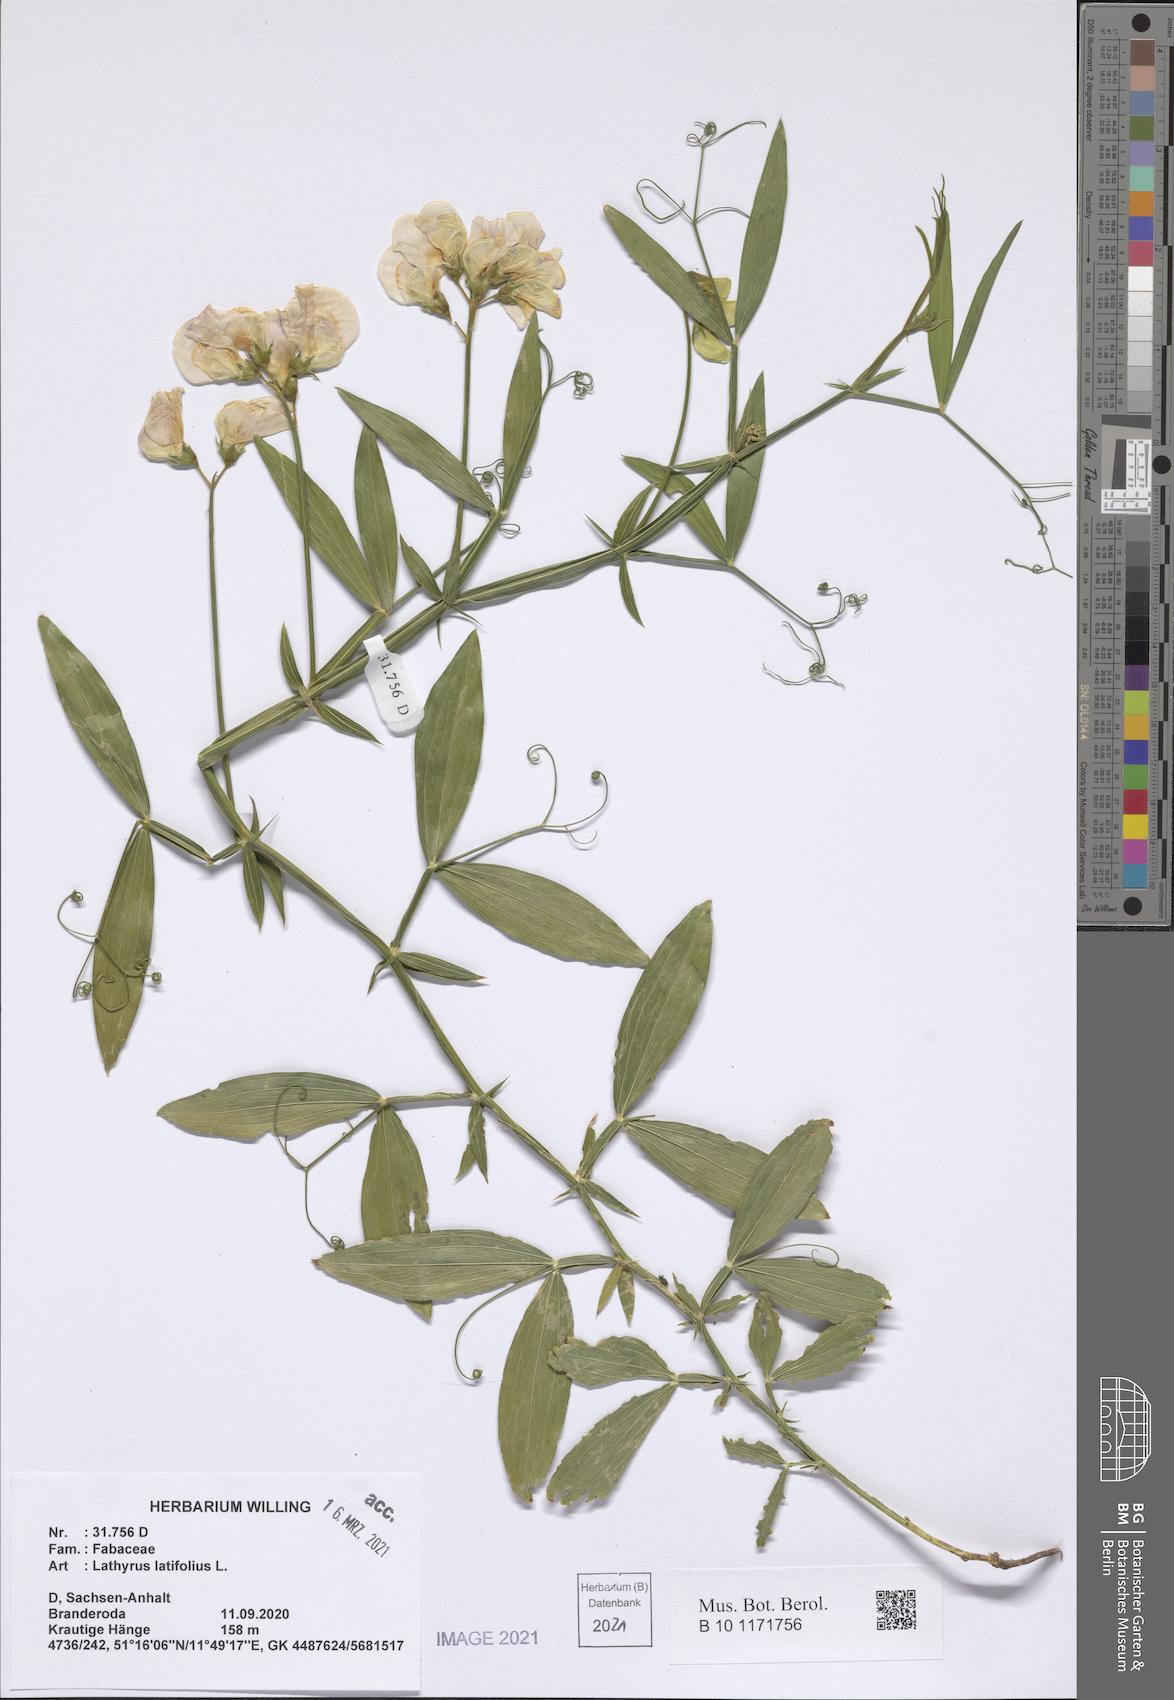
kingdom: Plantae
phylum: Tracheophyta
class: Magnoliopsida
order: Fabales
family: Fabaceae
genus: Lathyrus
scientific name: Lathyrus latifolius
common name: Perennial pea
